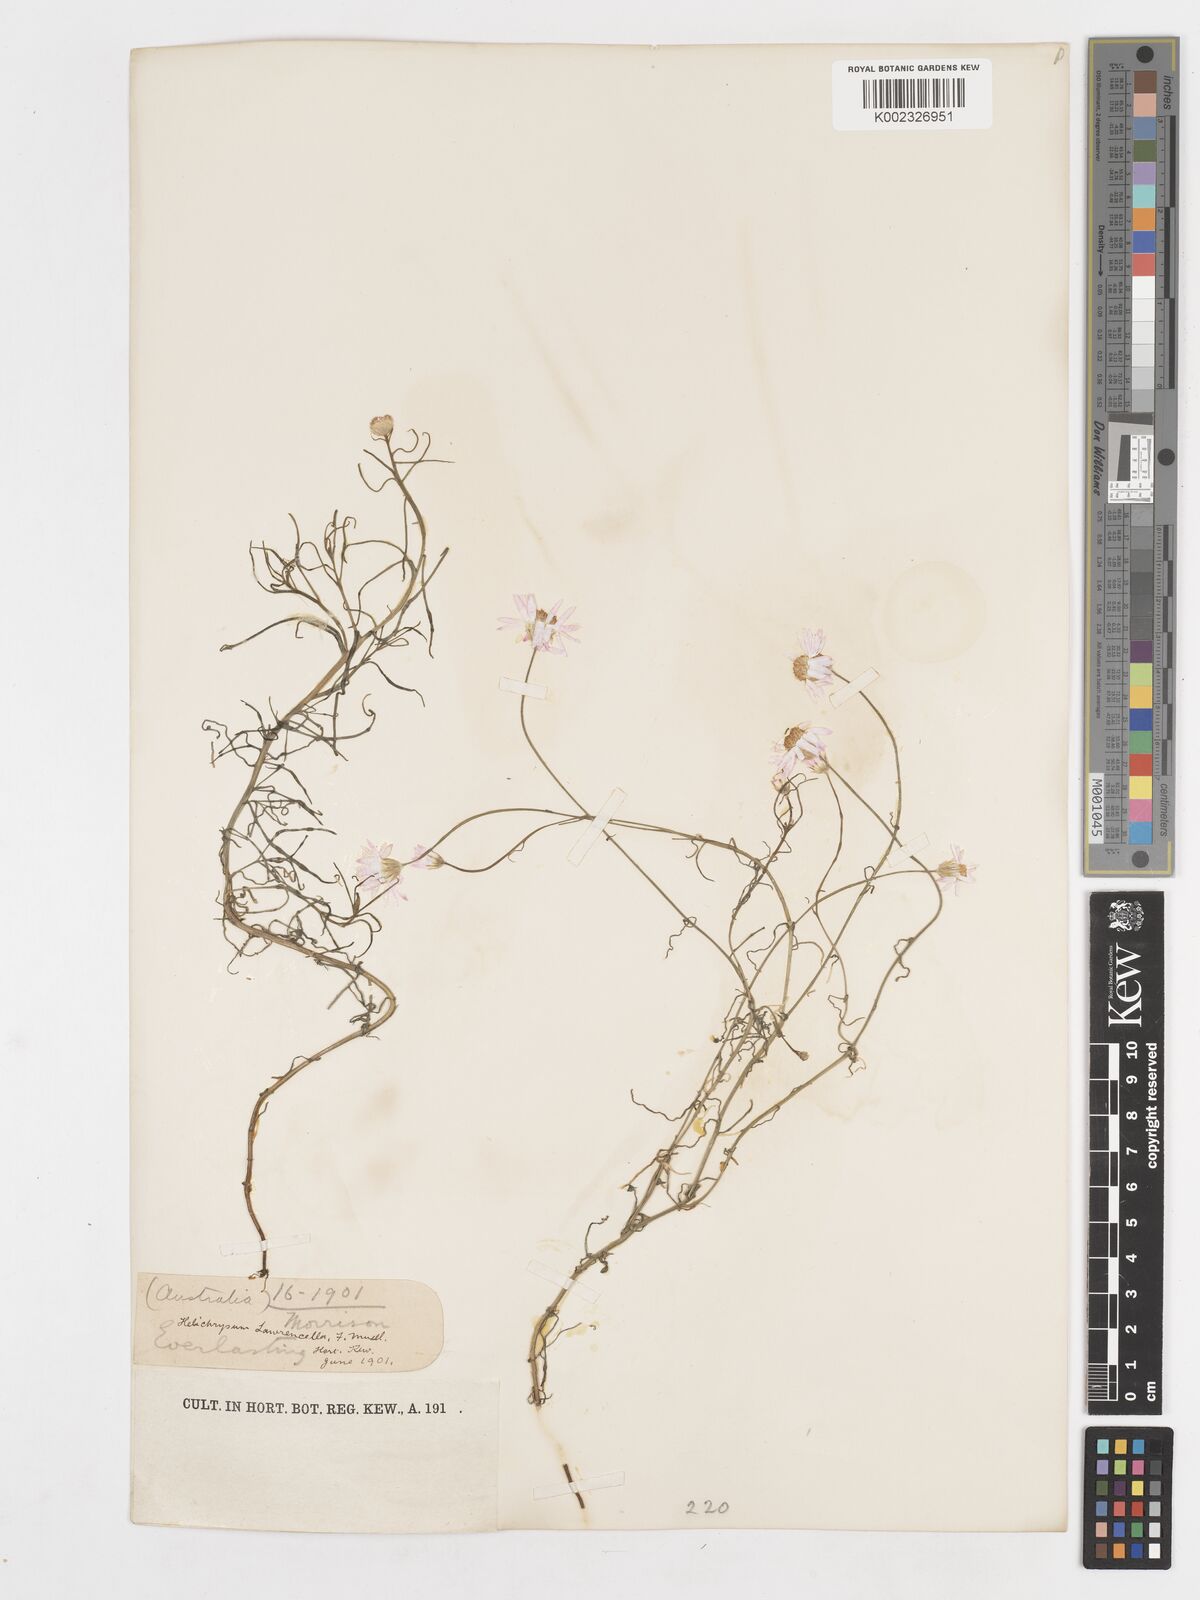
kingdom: Plantae
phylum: Tracheophyta
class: Magnoliopsida
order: Asterales
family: Asteraceae
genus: Lawrencella
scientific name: Lawrencella rosea
